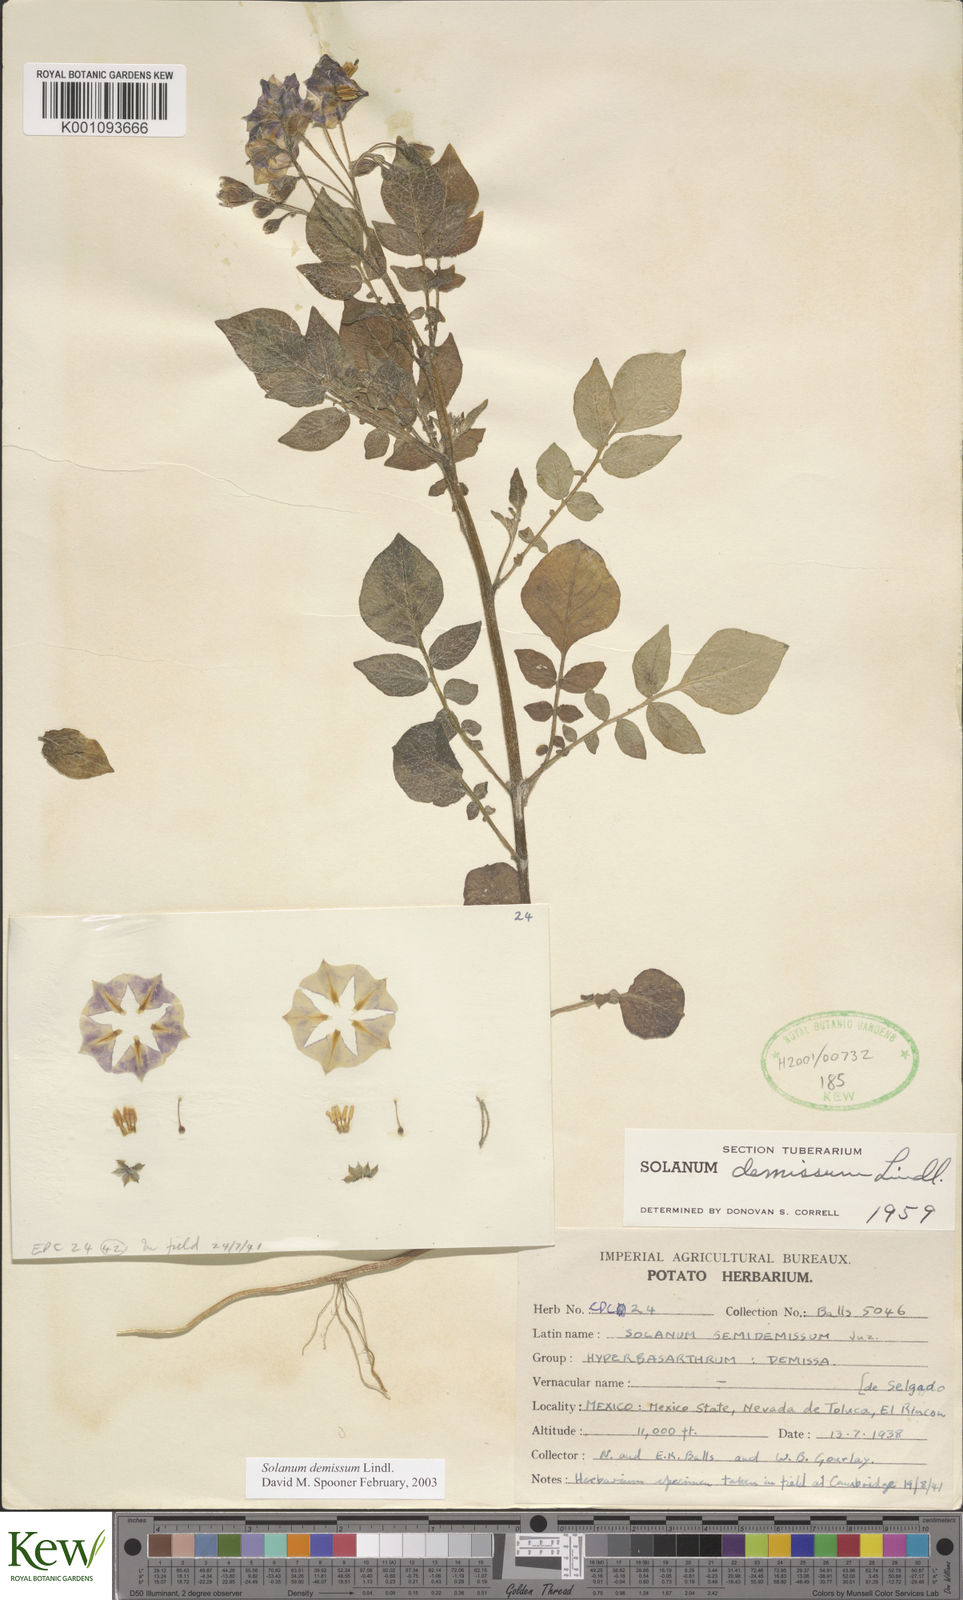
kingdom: Plantae
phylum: Tracheophyta
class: Magnoliopsida
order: Solanales
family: Solanaceae
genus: Solanum
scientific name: Solanum demissum
